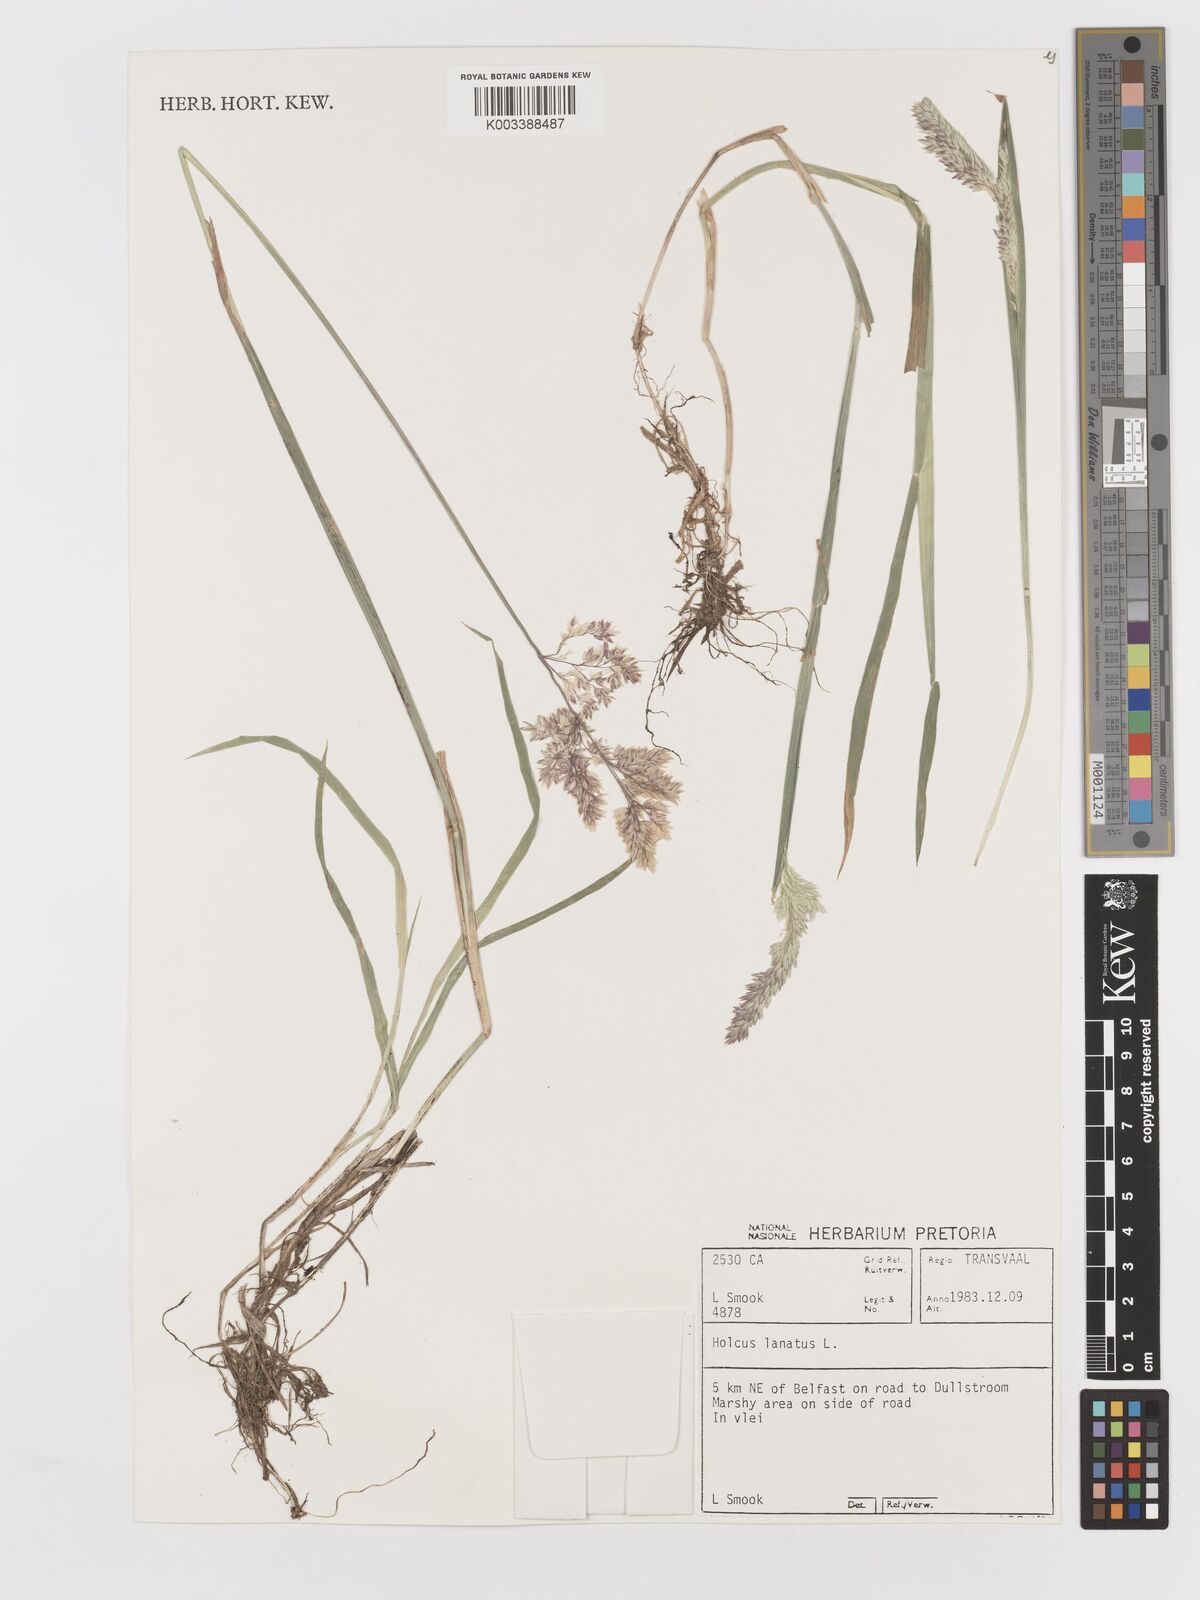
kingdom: Plantae
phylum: Tracheophyta
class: Liliopsida
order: Poales
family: Poaceae
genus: Holcus
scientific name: Holcus lanatus
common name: Yorkshire-fog
